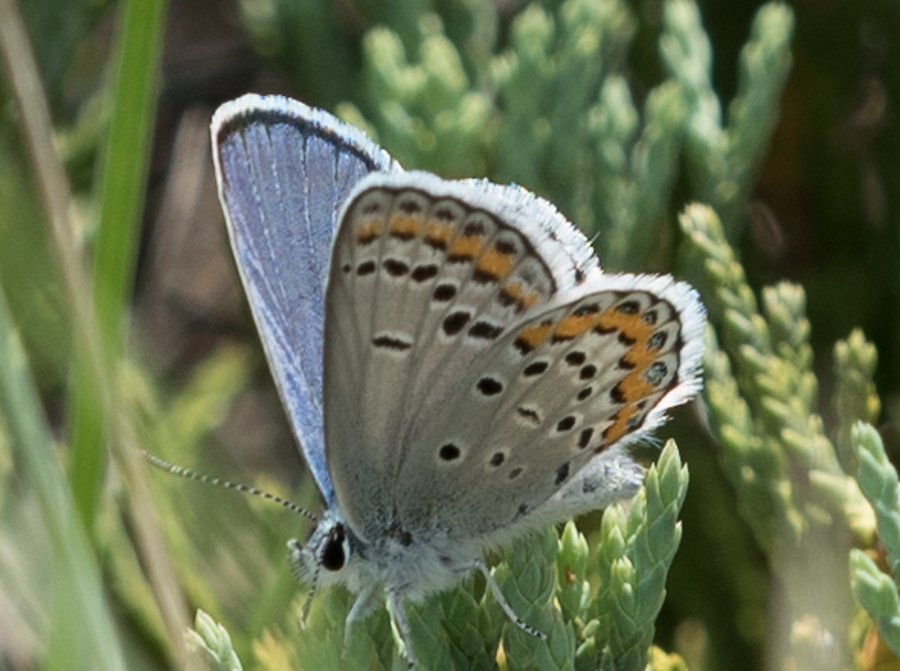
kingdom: Animalia
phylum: Arthropoda
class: Insecta
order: Lepidoptera
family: Lycaenidae
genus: Lycaeides
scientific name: Lycaeides melissa
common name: Melissa Blue
